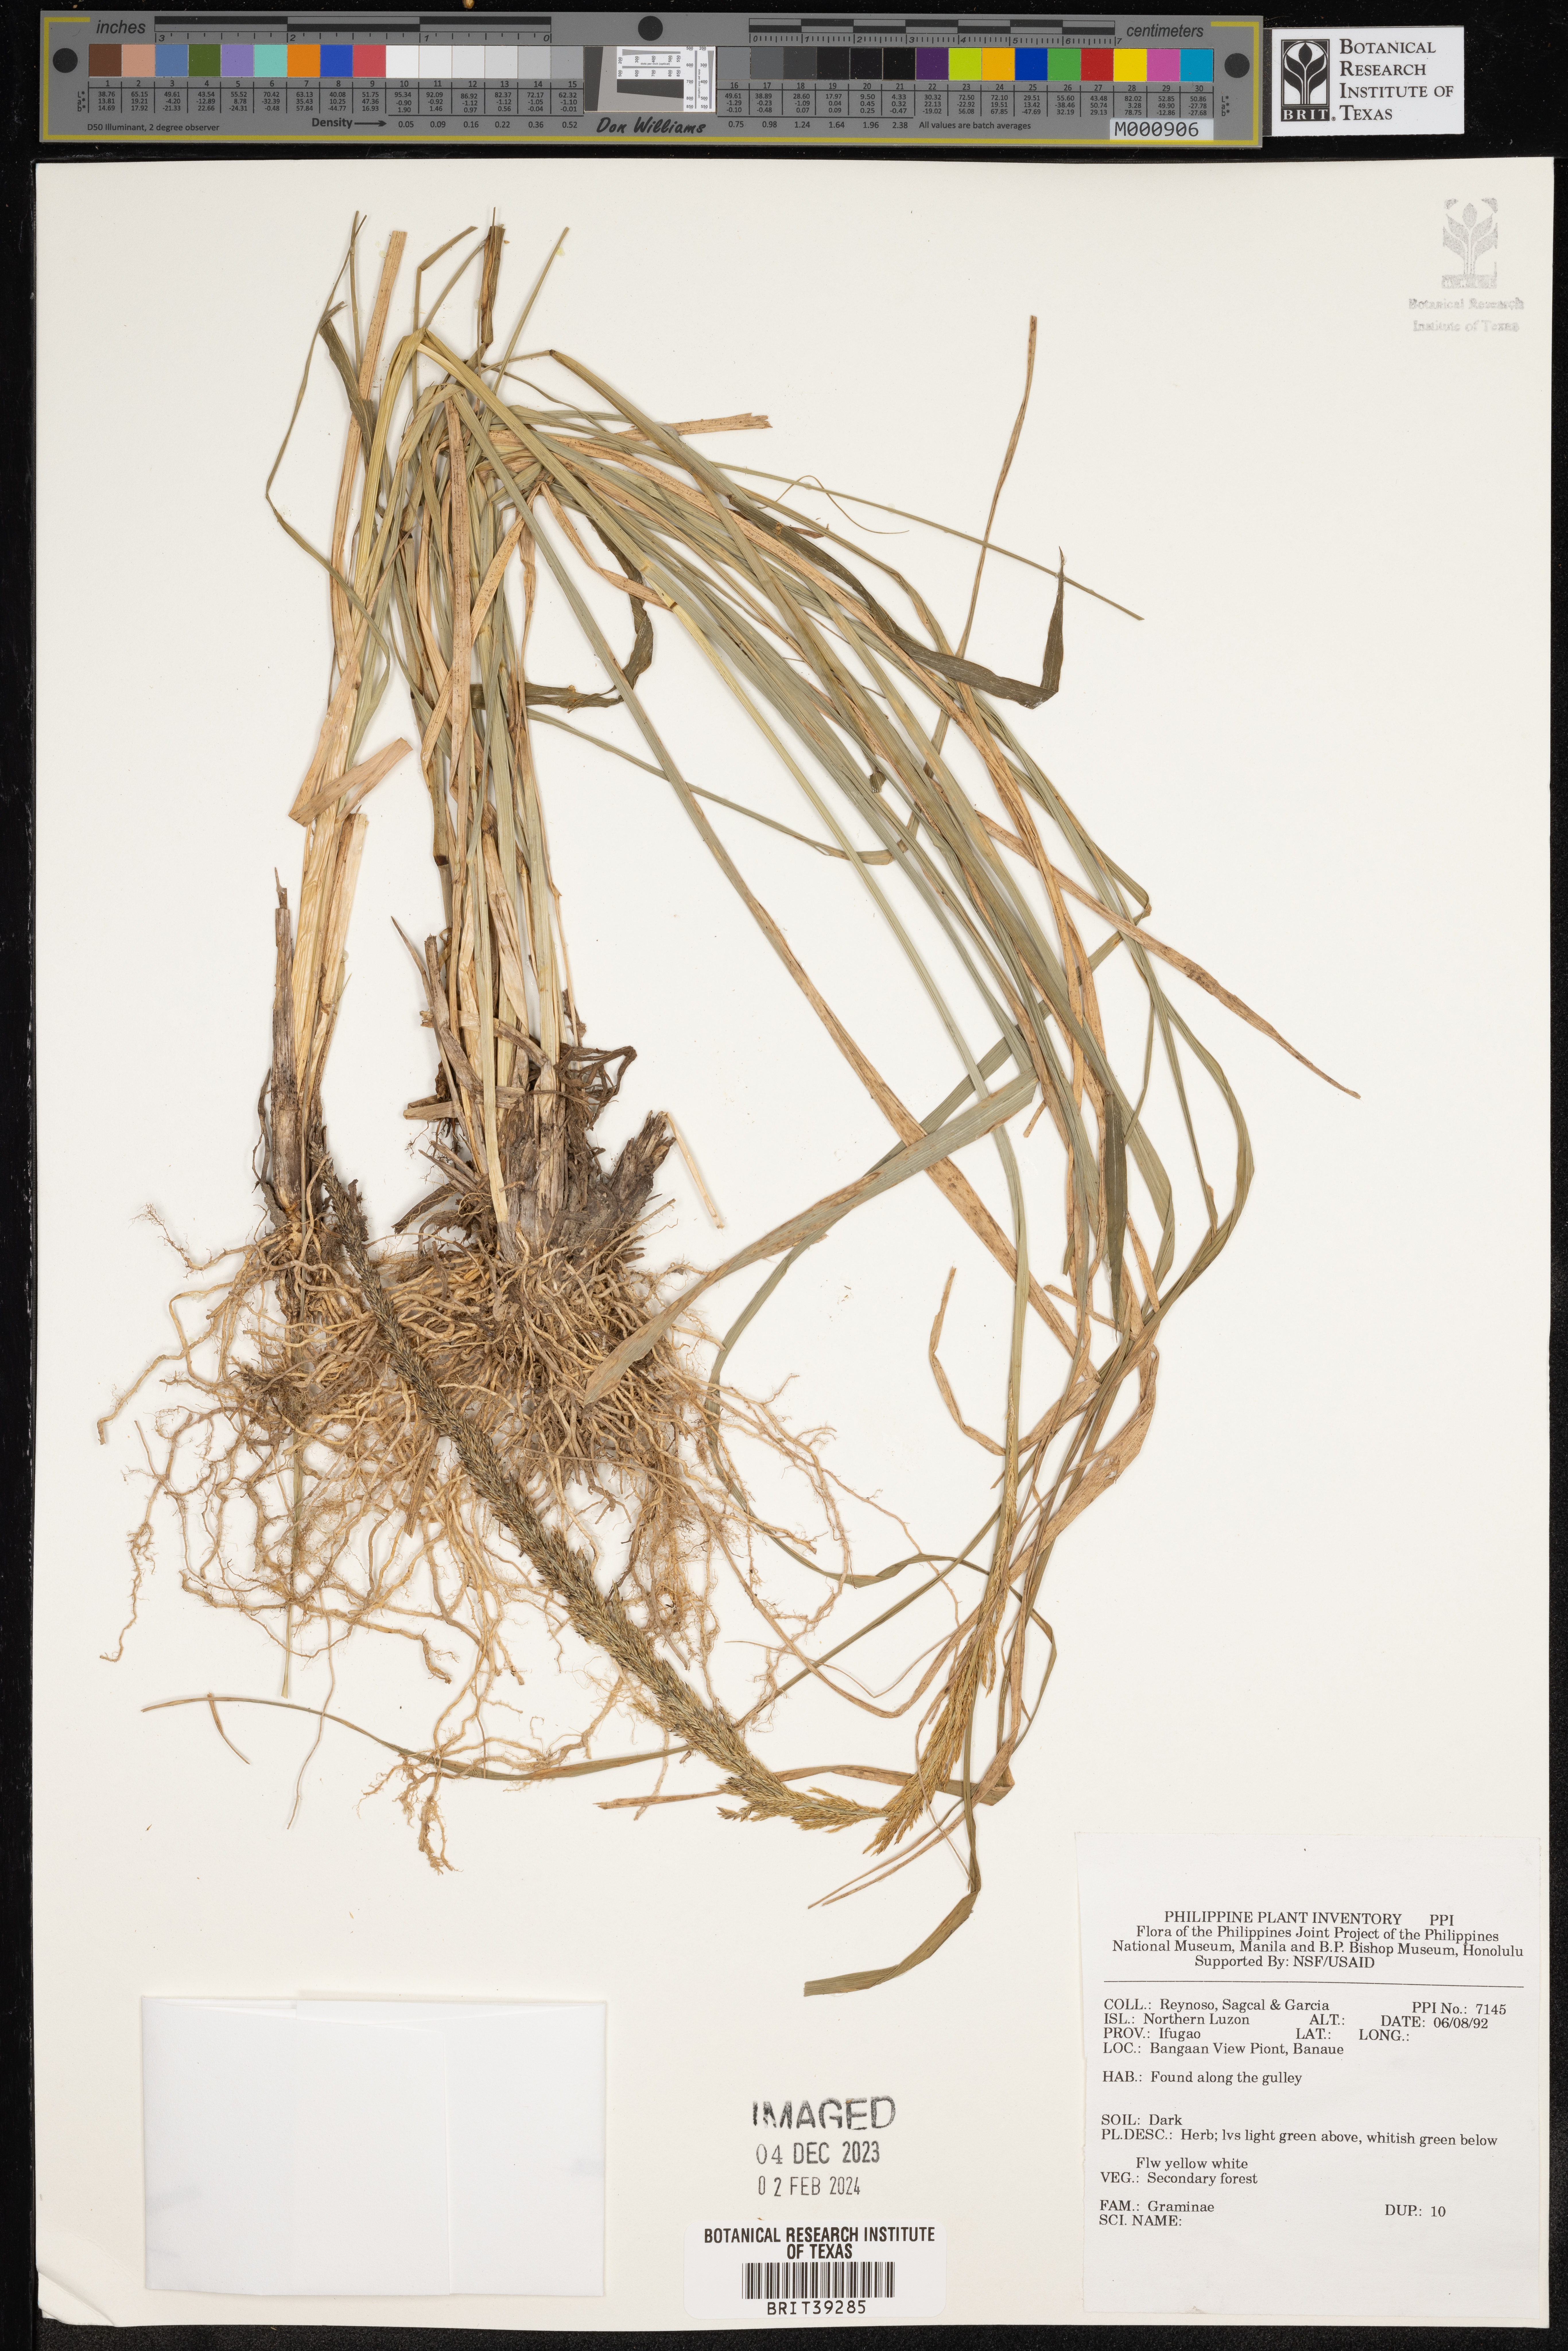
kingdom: Plantae
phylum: Tracheophyta
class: Liliopsida
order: Poales
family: Poaceae
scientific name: Poaceae
